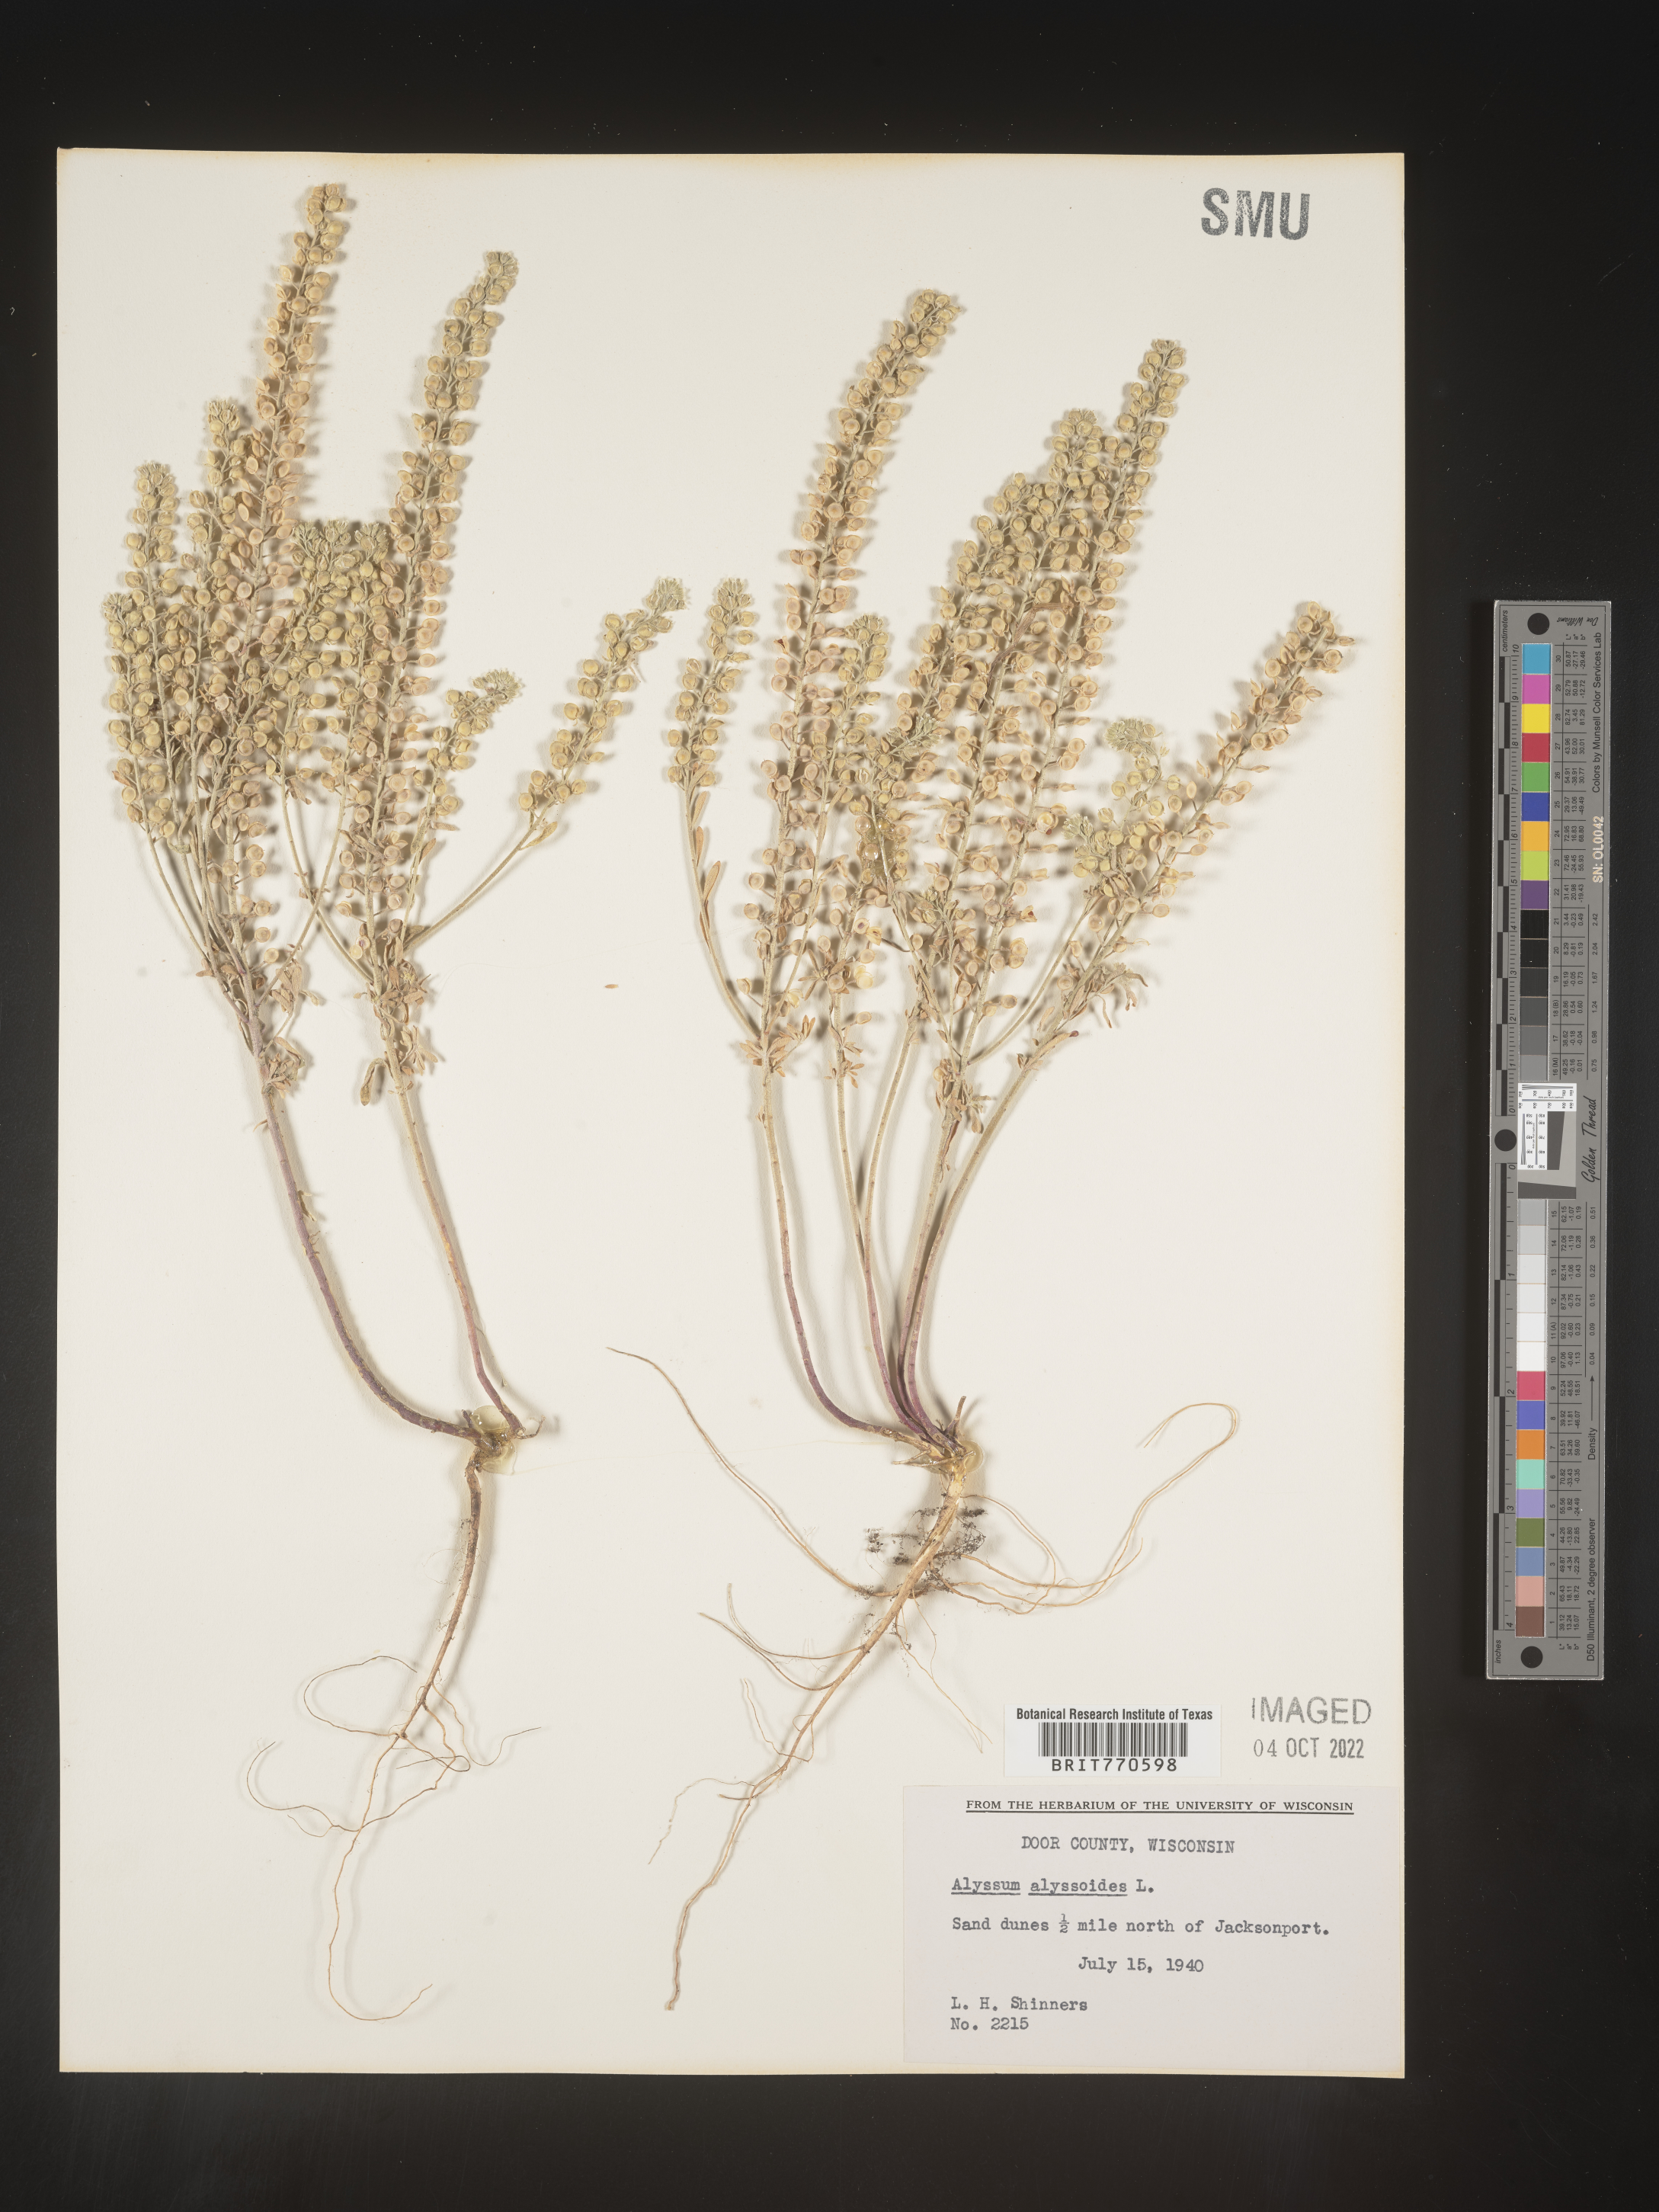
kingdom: Plantae
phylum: Tracheophyta
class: Magnoliopsida
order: Brassicales
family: Brassicaceae
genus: Alyssum
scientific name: Alyssum alyssoides
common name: Small alison
